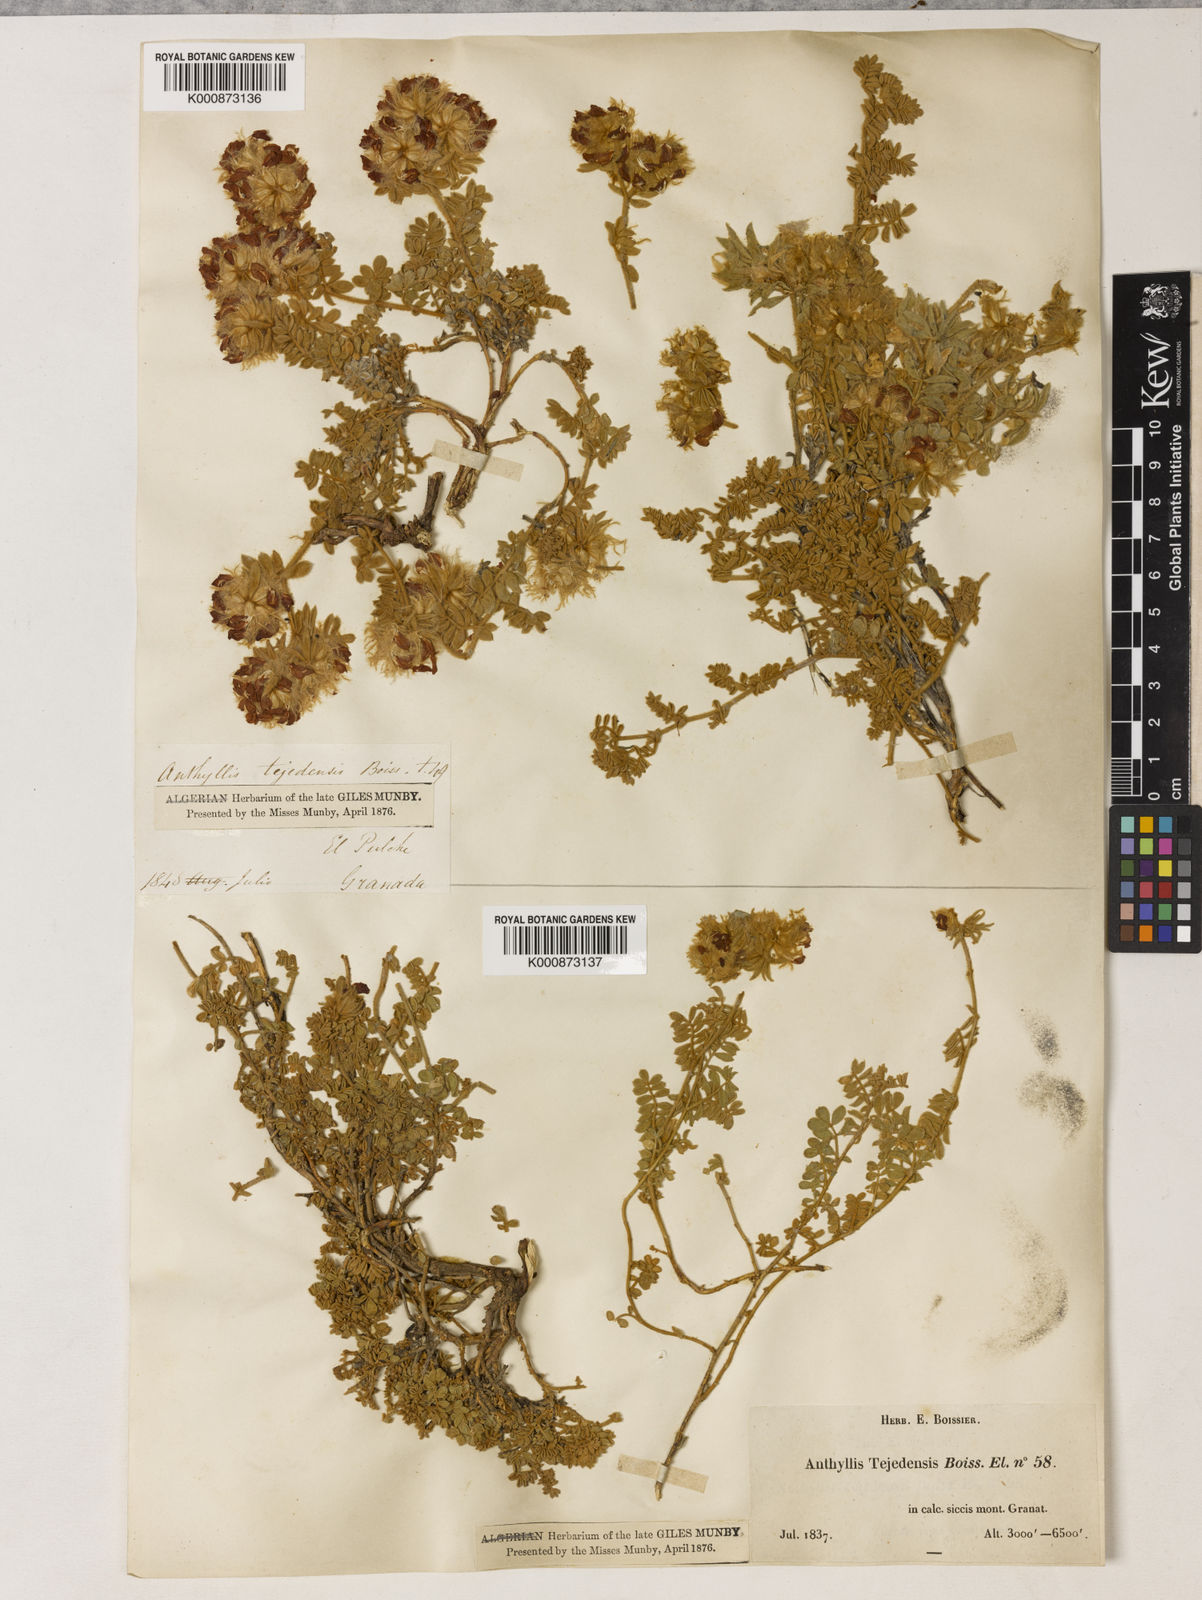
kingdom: Plantae
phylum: Tracheophyta
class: Magnoliopsida
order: Fabales
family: Fabaceae
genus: Anthyllis
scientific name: Anthyllis tejedensis
